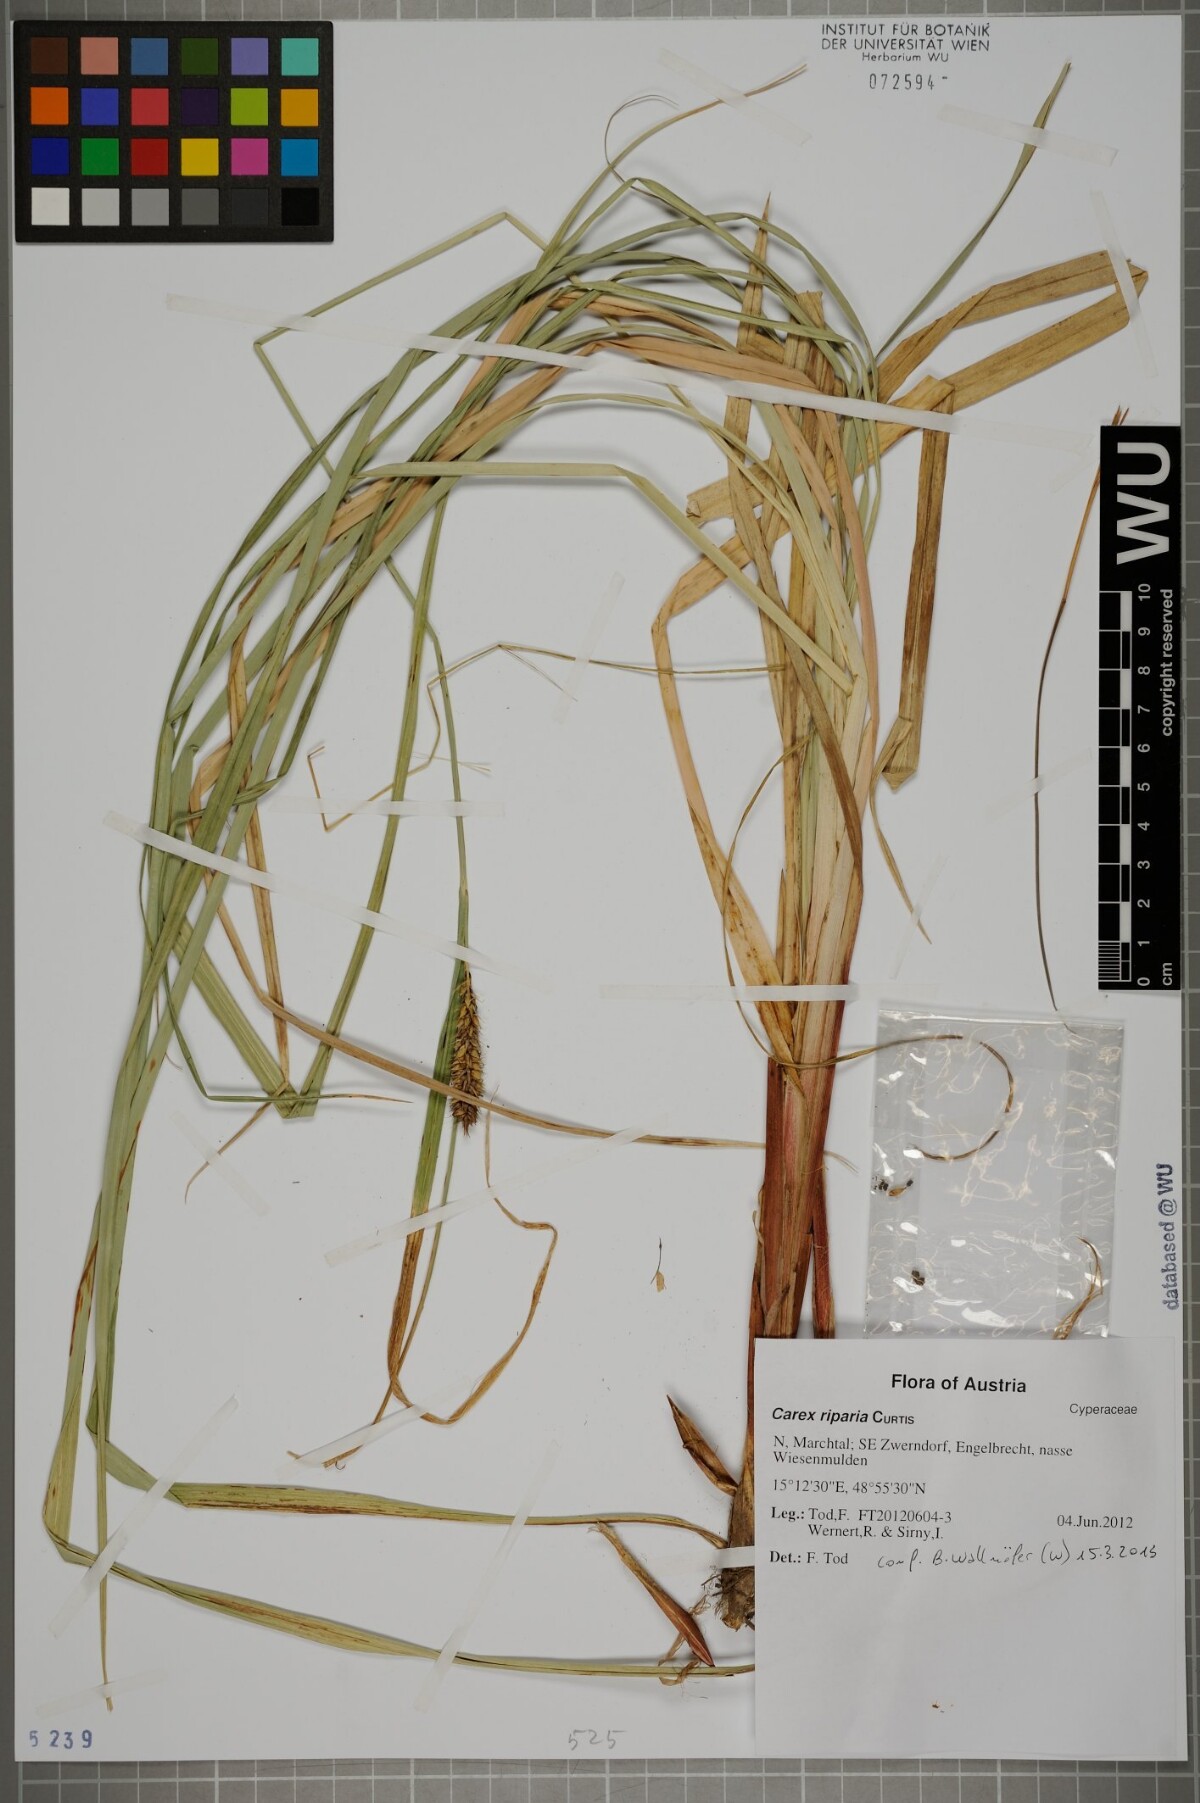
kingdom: Plantae
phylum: Tracheophyta
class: Liliopsida
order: Poales
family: Cyperaceae
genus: Carex
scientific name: Carex riparia
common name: Greater pond-sedge
